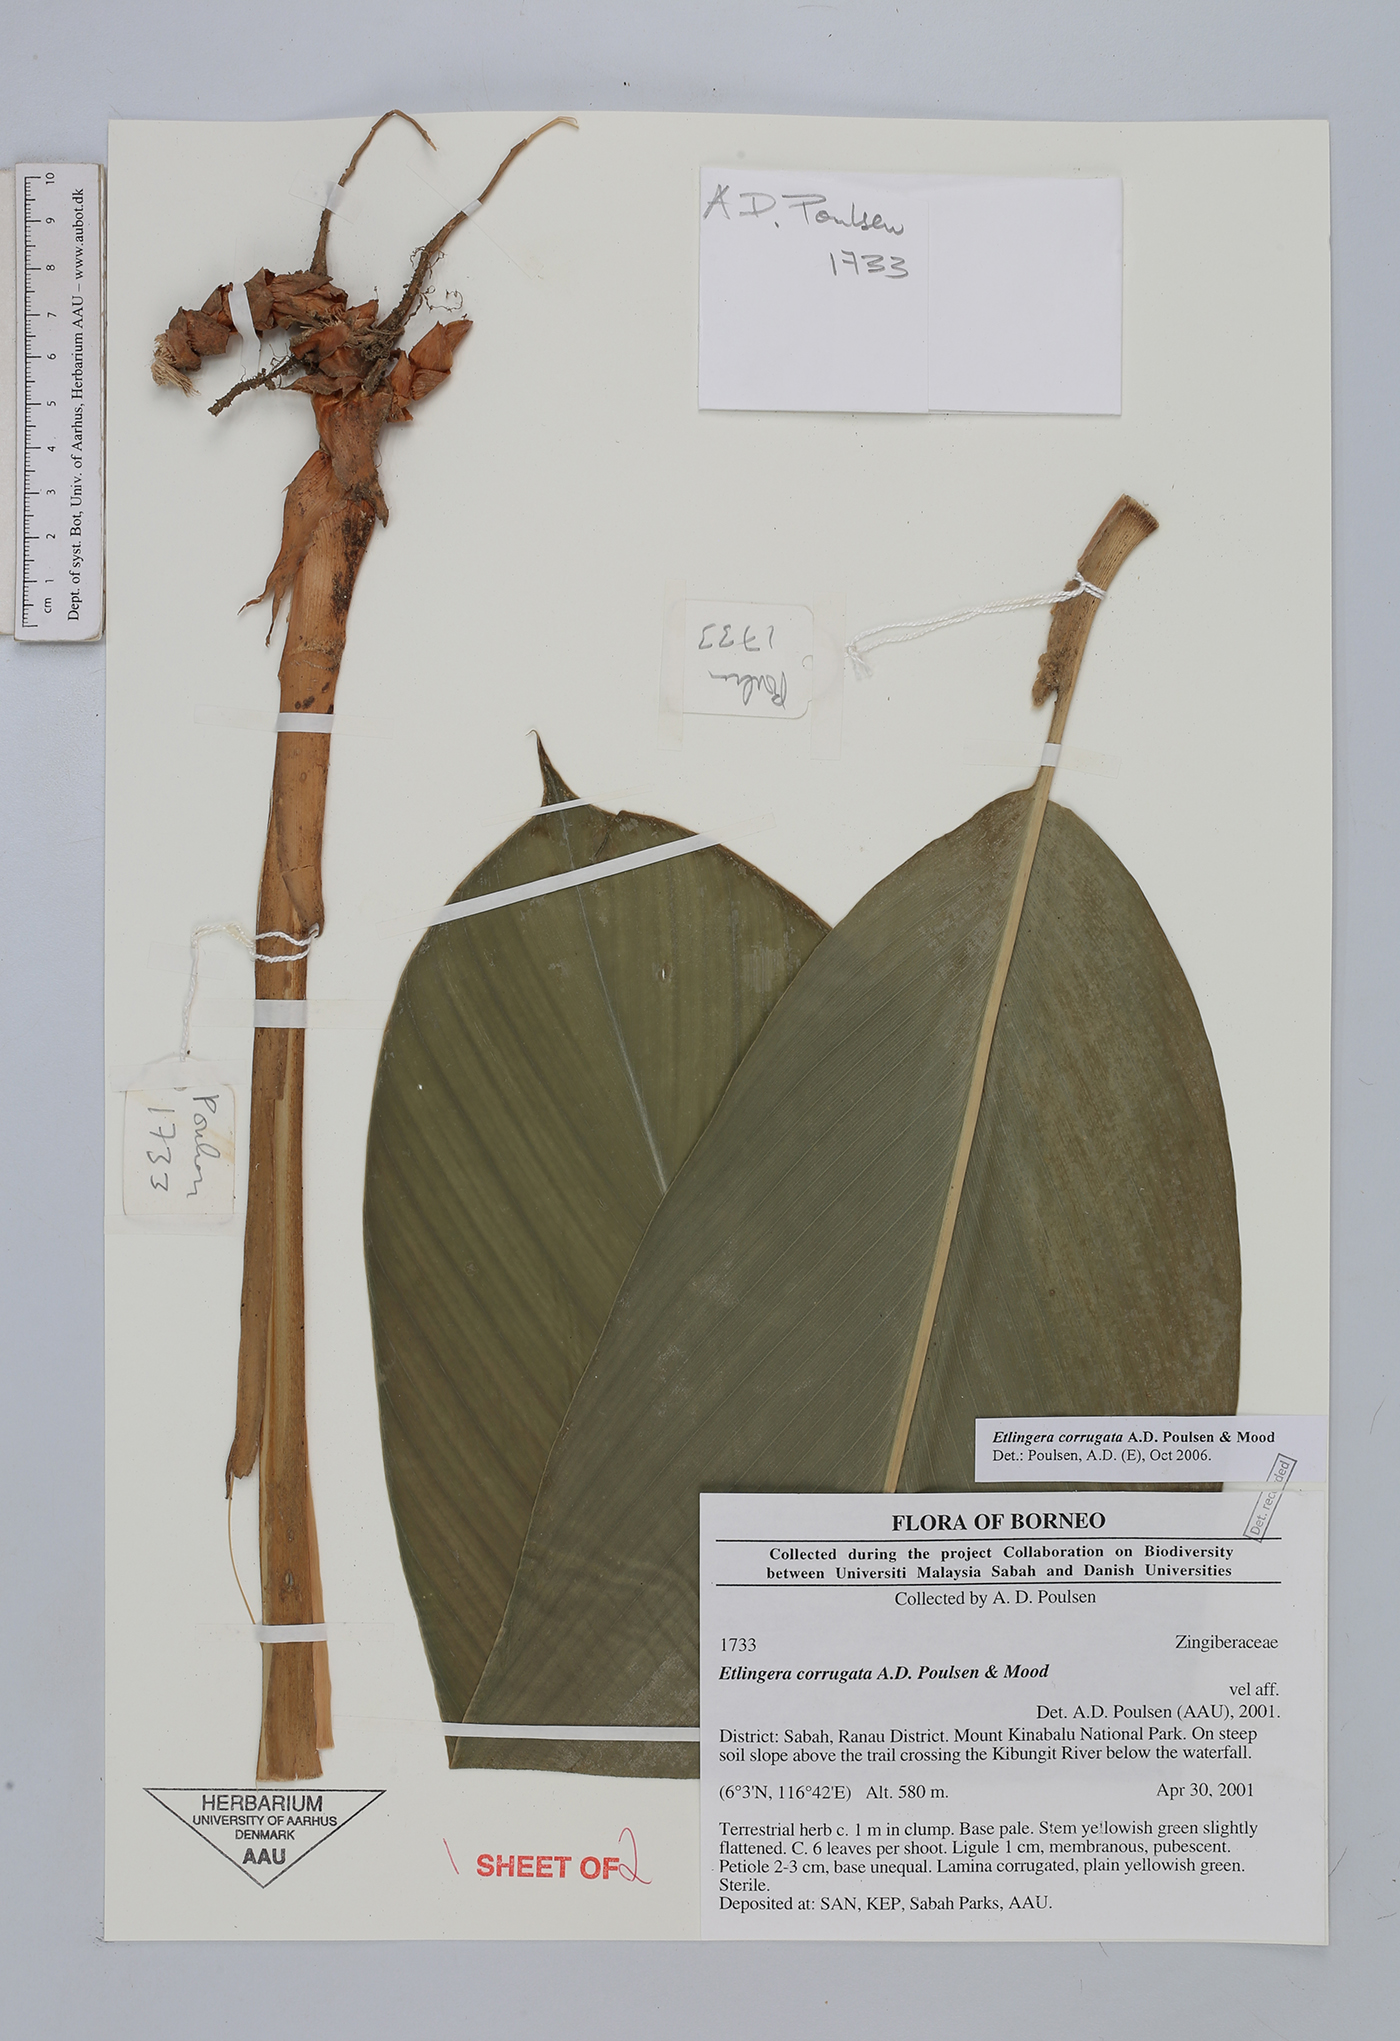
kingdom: Plantae
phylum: Tracheophyta
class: Liliopsida
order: Zingiberales
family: Zingiberaceae
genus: Etlingera
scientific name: Etlingera corrugata
